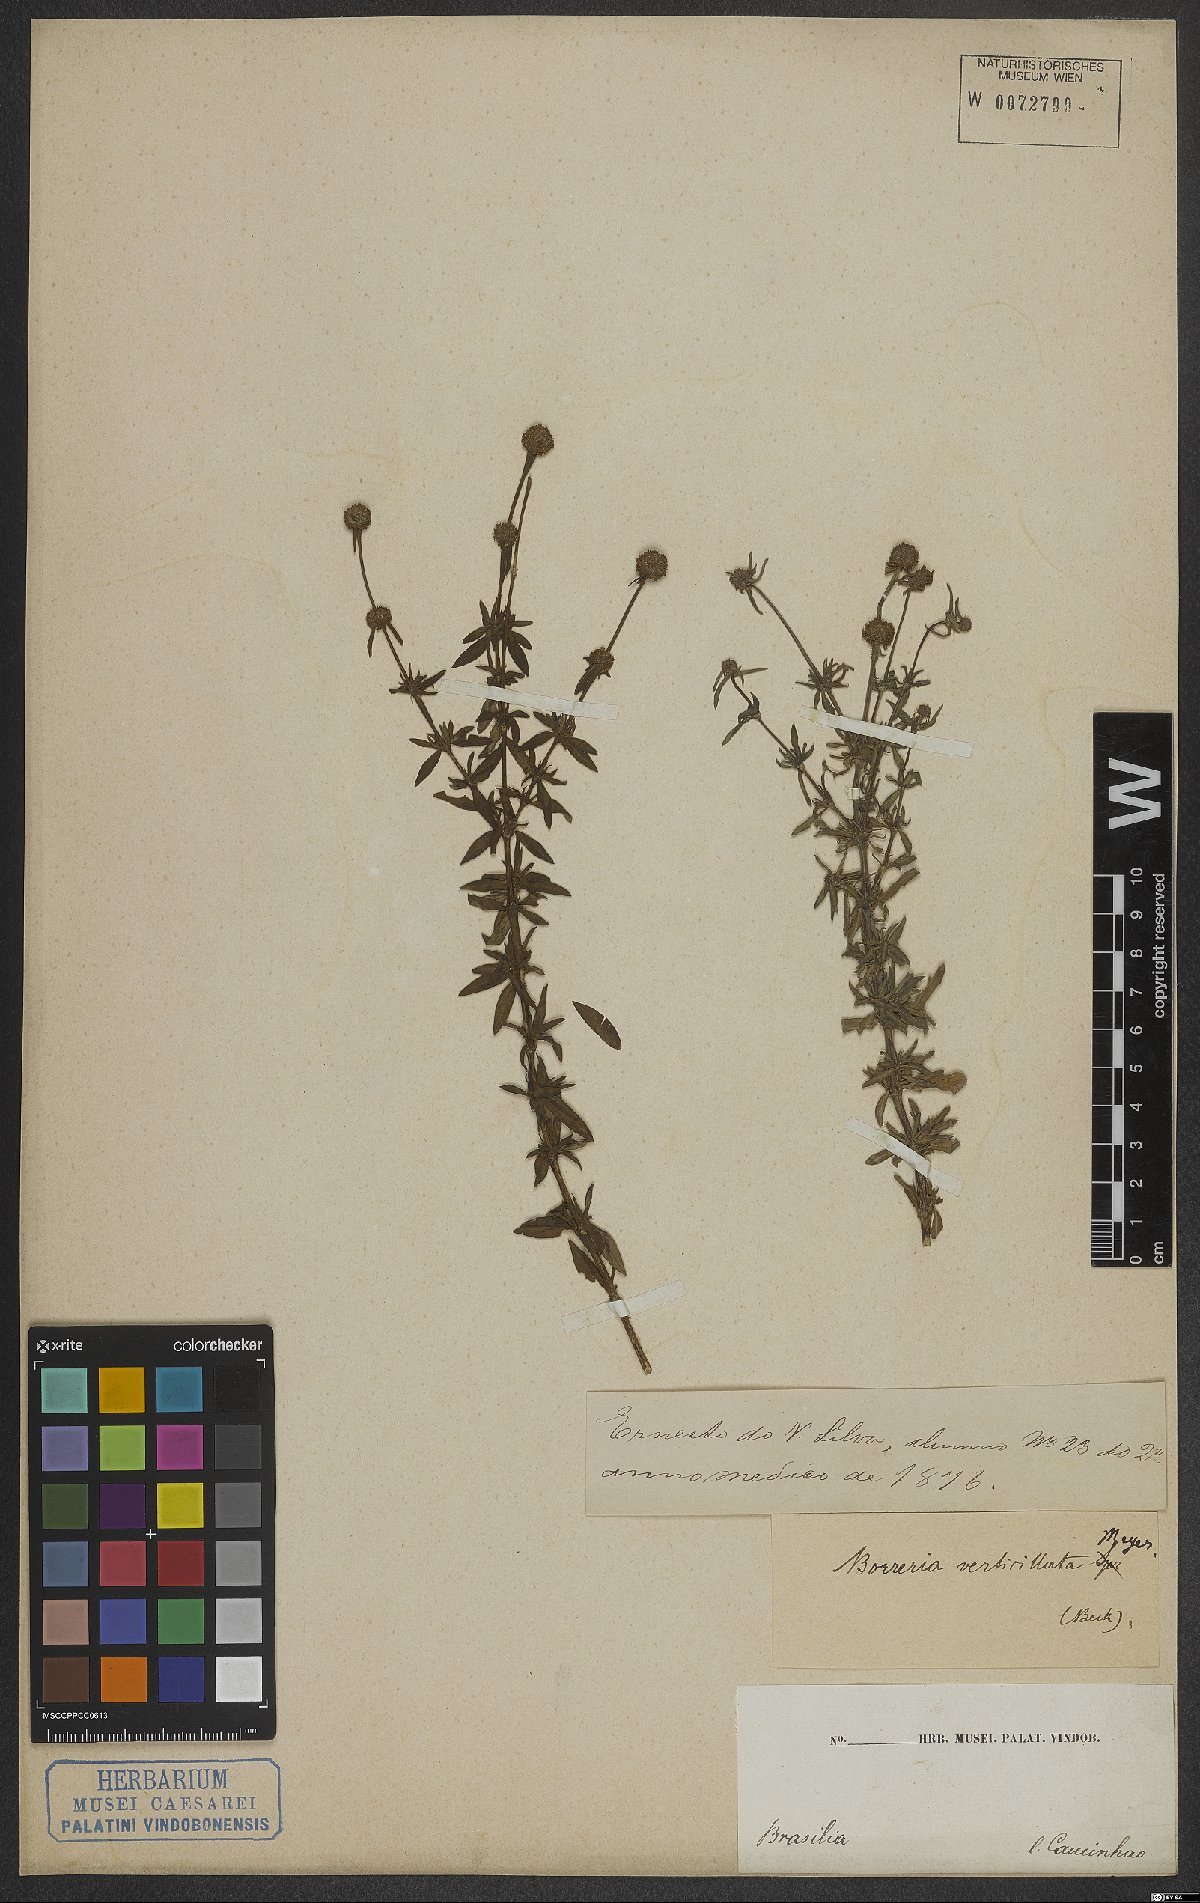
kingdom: Plantae
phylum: Tracheophyta
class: Magnoliopsida
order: Gentianales
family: Rubiaceae
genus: Spermacoce
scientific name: Spermacoce verticillata
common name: Shrubby false buttonweed
